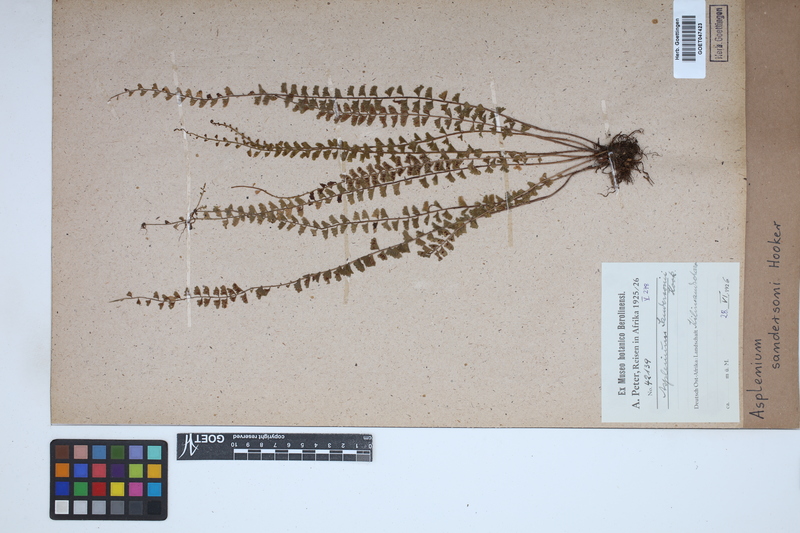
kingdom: Plantae
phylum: Tracheophyta
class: Polypodiopsida
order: Polypodiales
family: Aspleniaceae
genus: Asplenium
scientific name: Asplenium sandersonii
